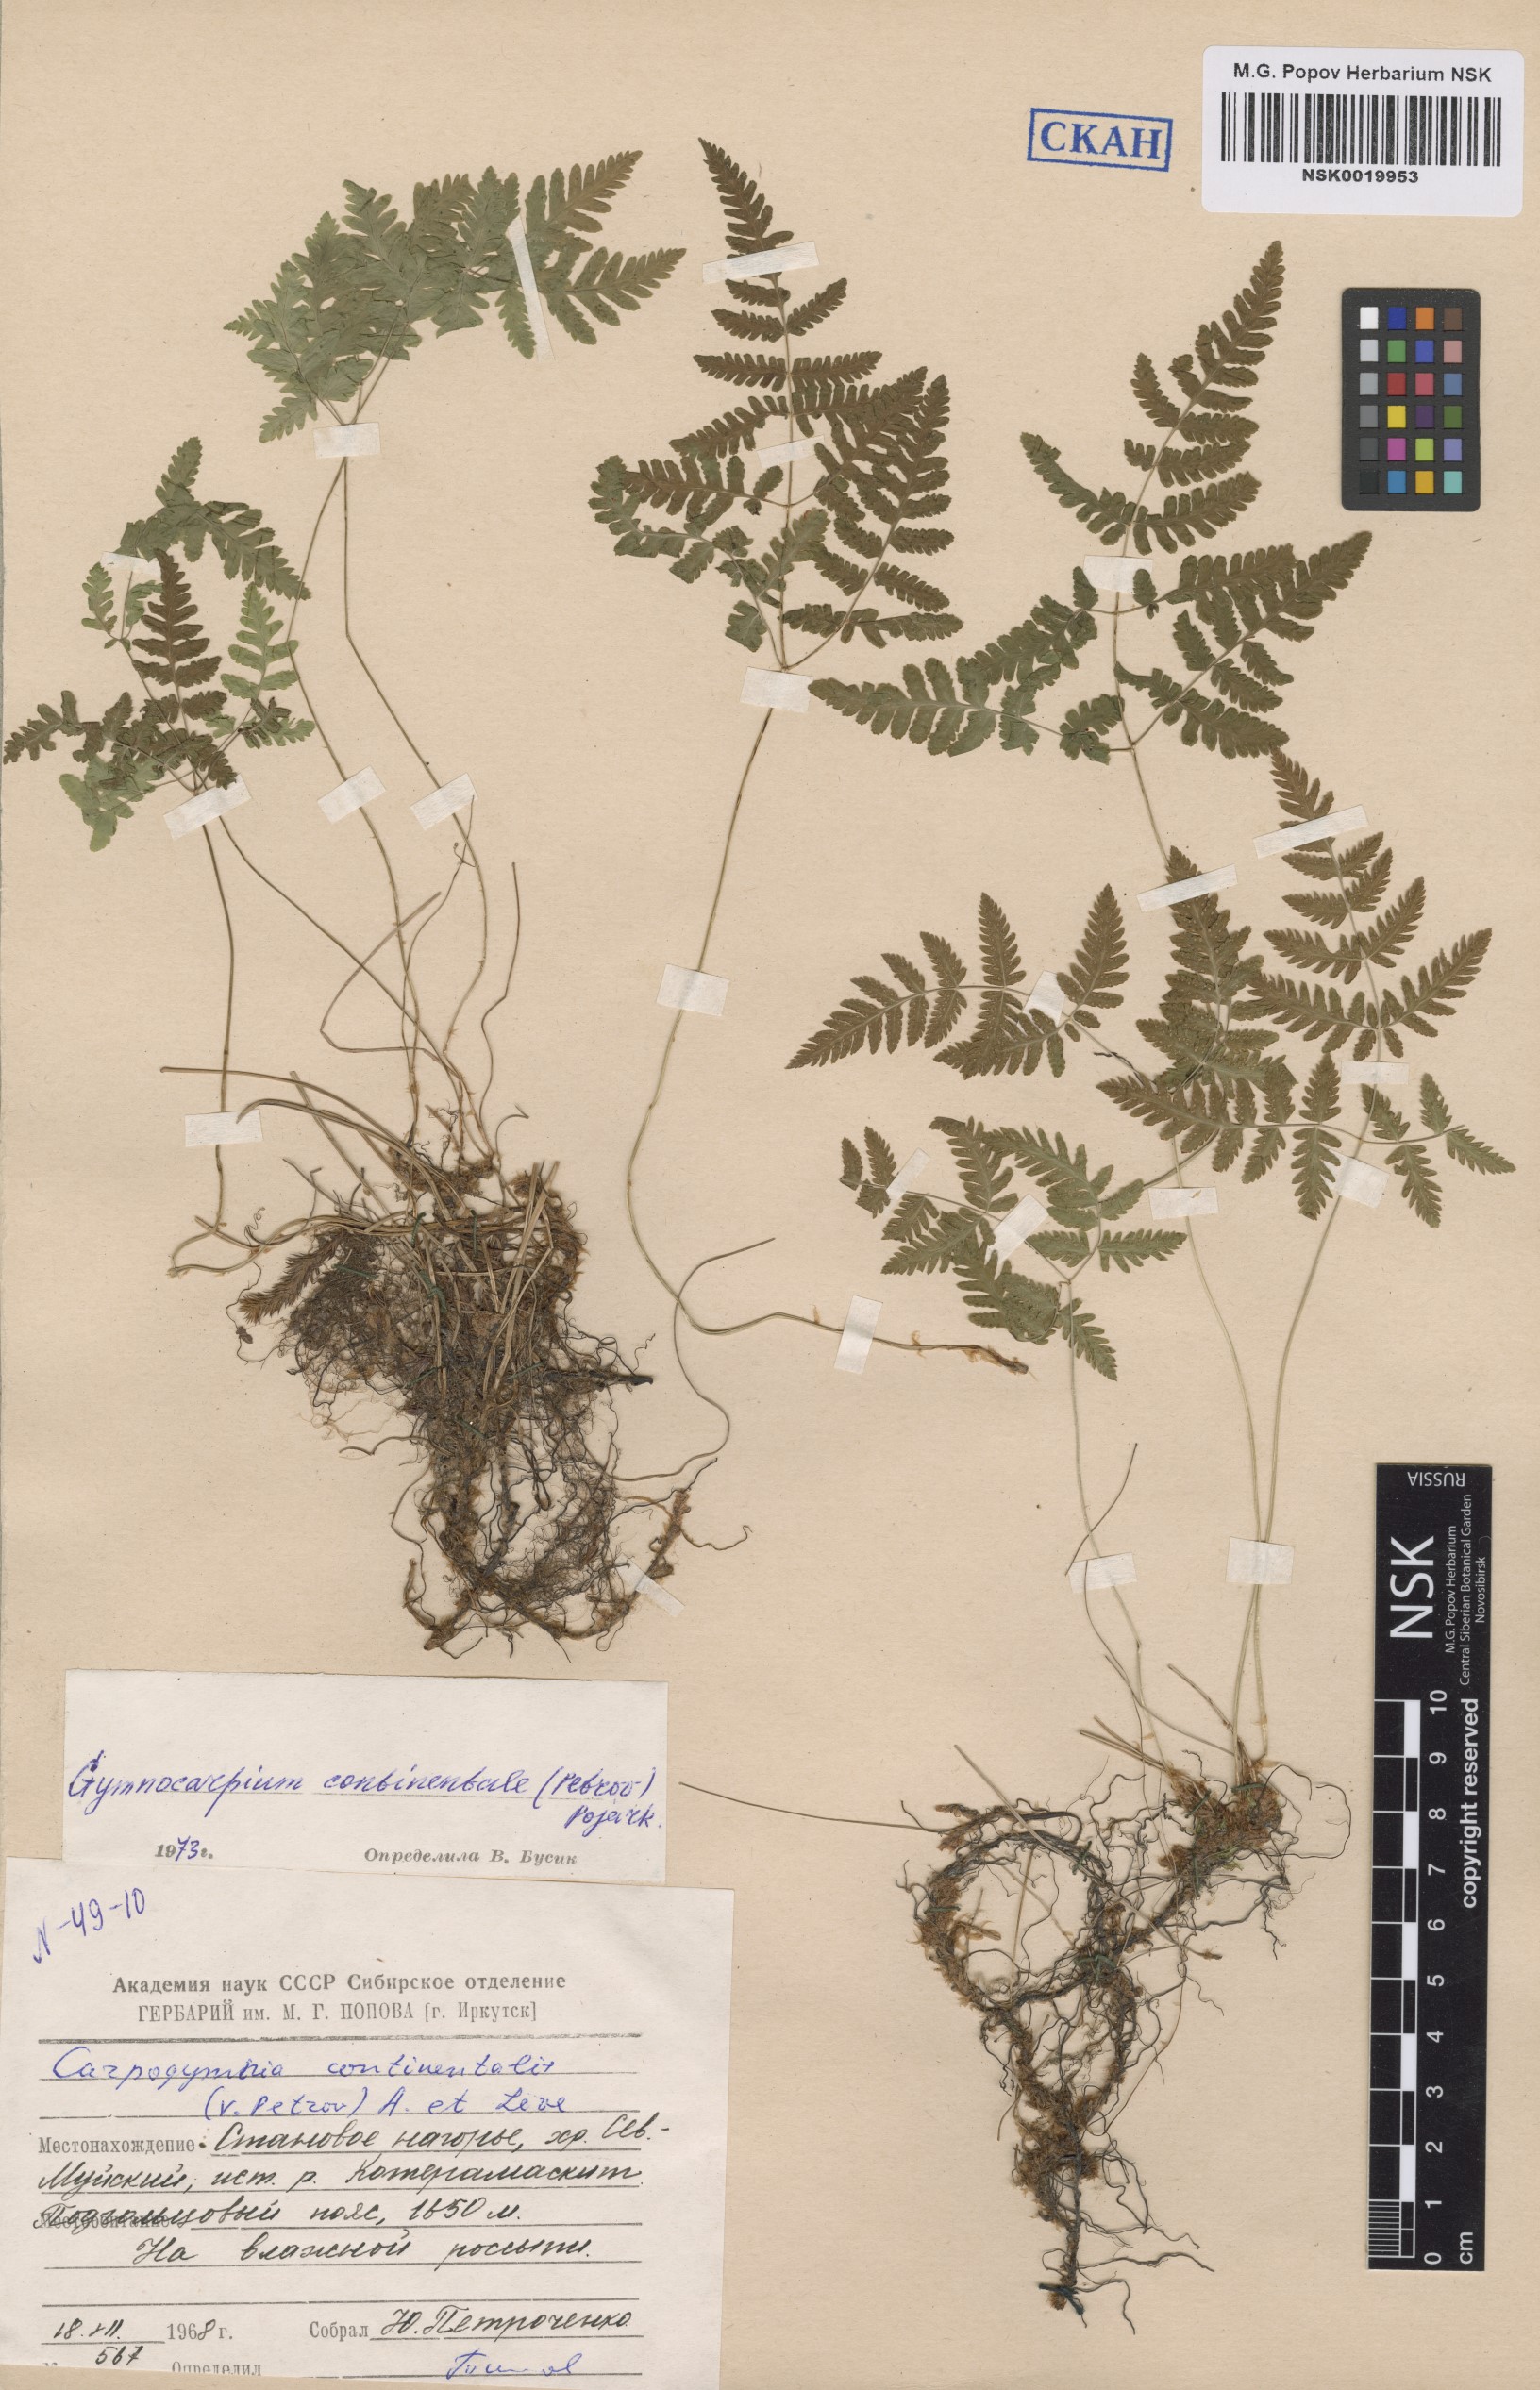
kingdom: Plantae
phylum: Tracheophyta
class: Polypodiopsida
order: Polypodiales
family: Cystopteridaceae
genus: Gymnocarpium
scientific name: Gymnocarpium continentale
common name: Asian oak fern
